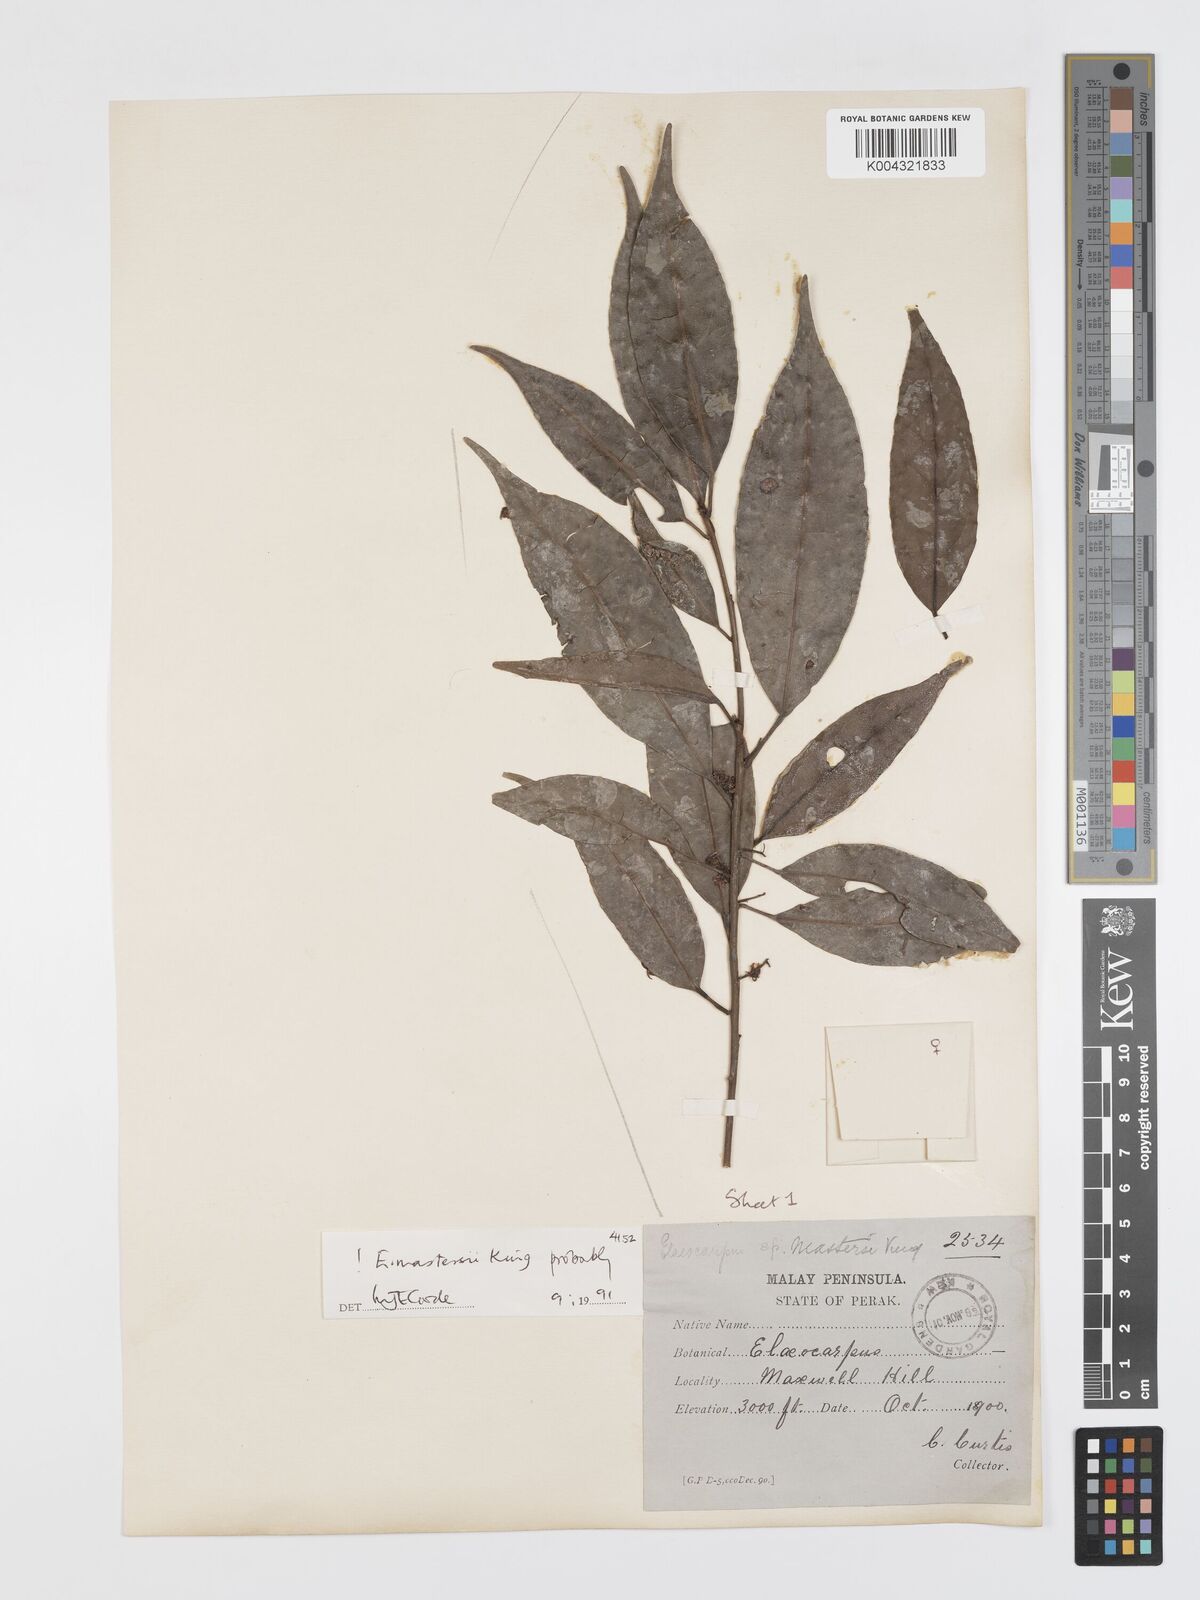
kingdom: Plantae
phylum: Tracheophyta
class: Magnoliopsida
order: Oxalidales
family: Elaeocarpaceae
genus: Elaeocarpus
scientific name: Elaeocarpus mastersii
